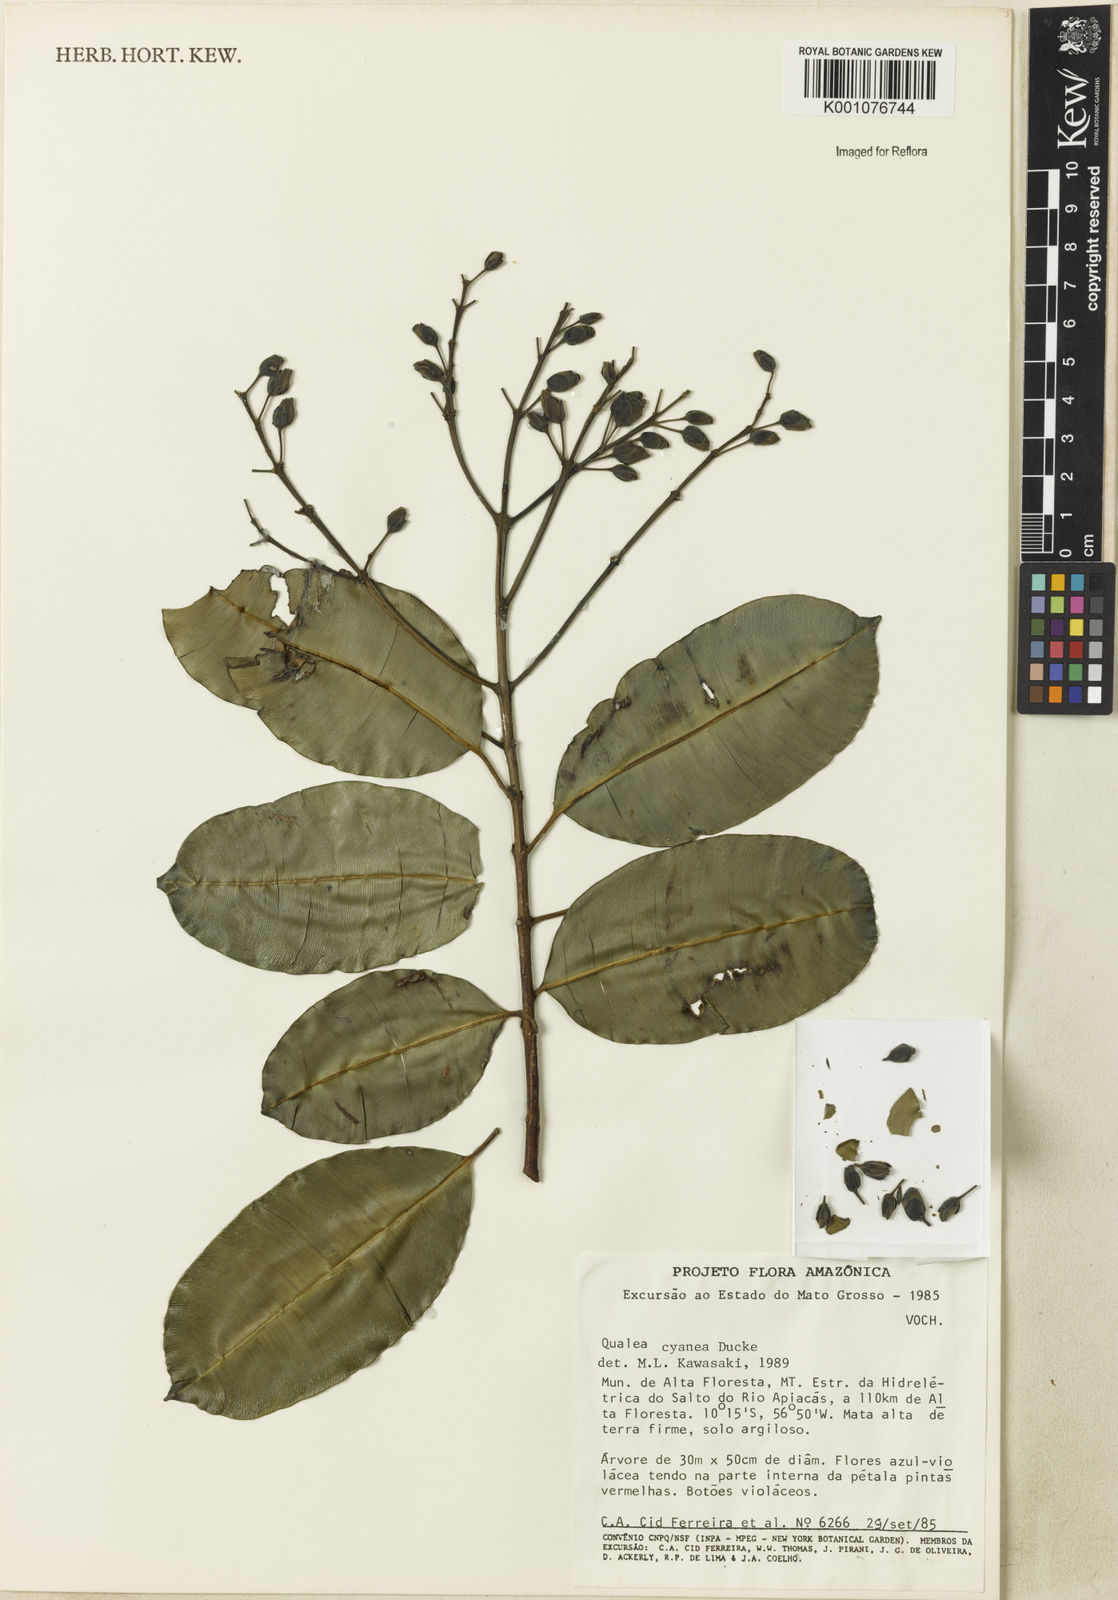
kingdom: Plantae
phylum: Tracheophyta
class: Magnoliopsida
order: Myrtales
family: Vochysiaceae
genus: Qualea
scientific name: Qualea cyanea
